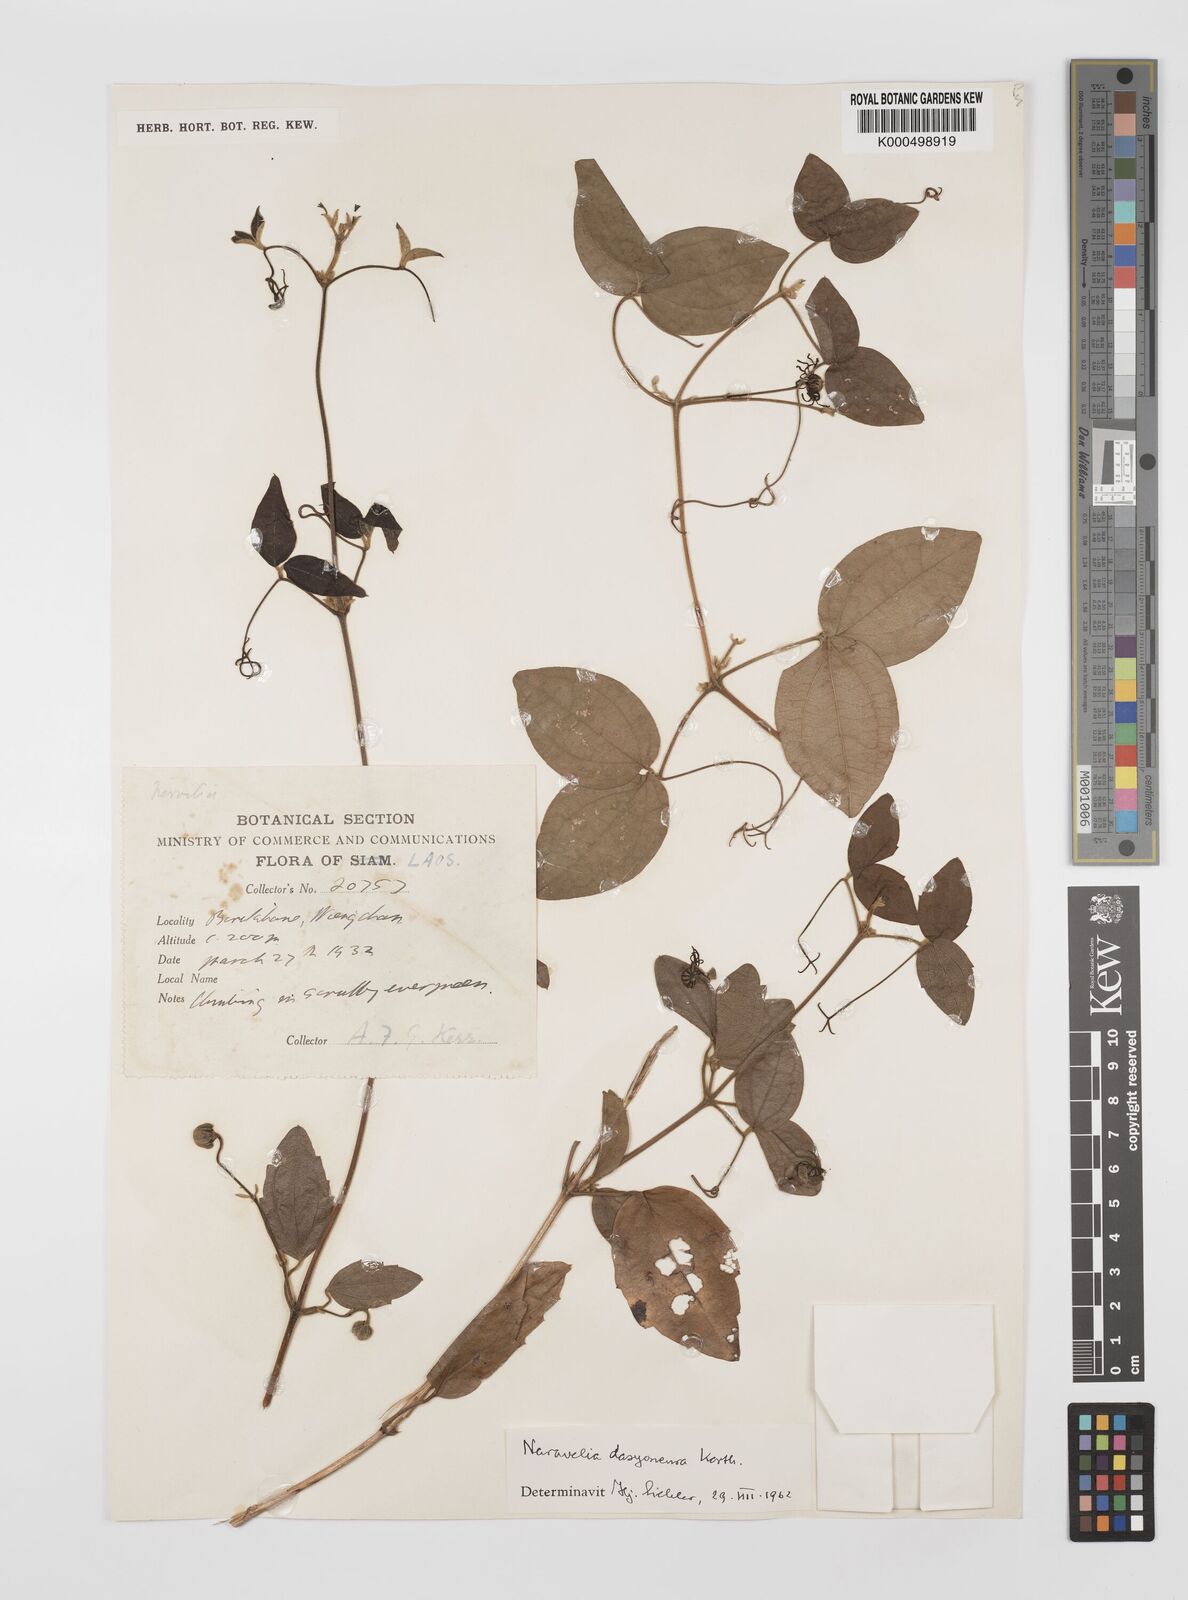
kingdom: Plantae
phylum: Tracheophyta
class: Magnoliopsida
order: Ranunculales
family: Ranunculaceae
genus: Clematis
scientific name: Clematis dasyoneura
